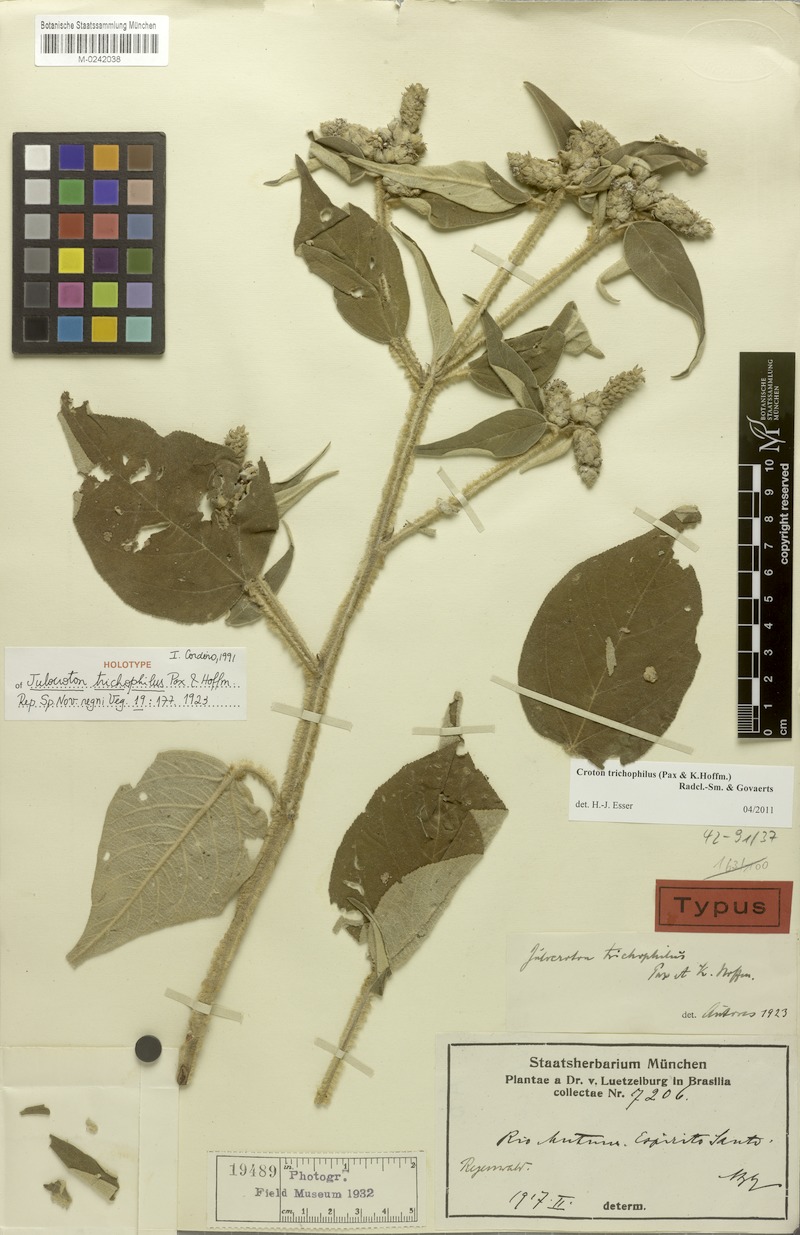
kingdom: Plantae
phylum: Tracheophyta
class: Magnoliopsida
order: Malpighiales
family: Euphorbiaceae
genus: Croton
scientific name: Croton trichophilus
